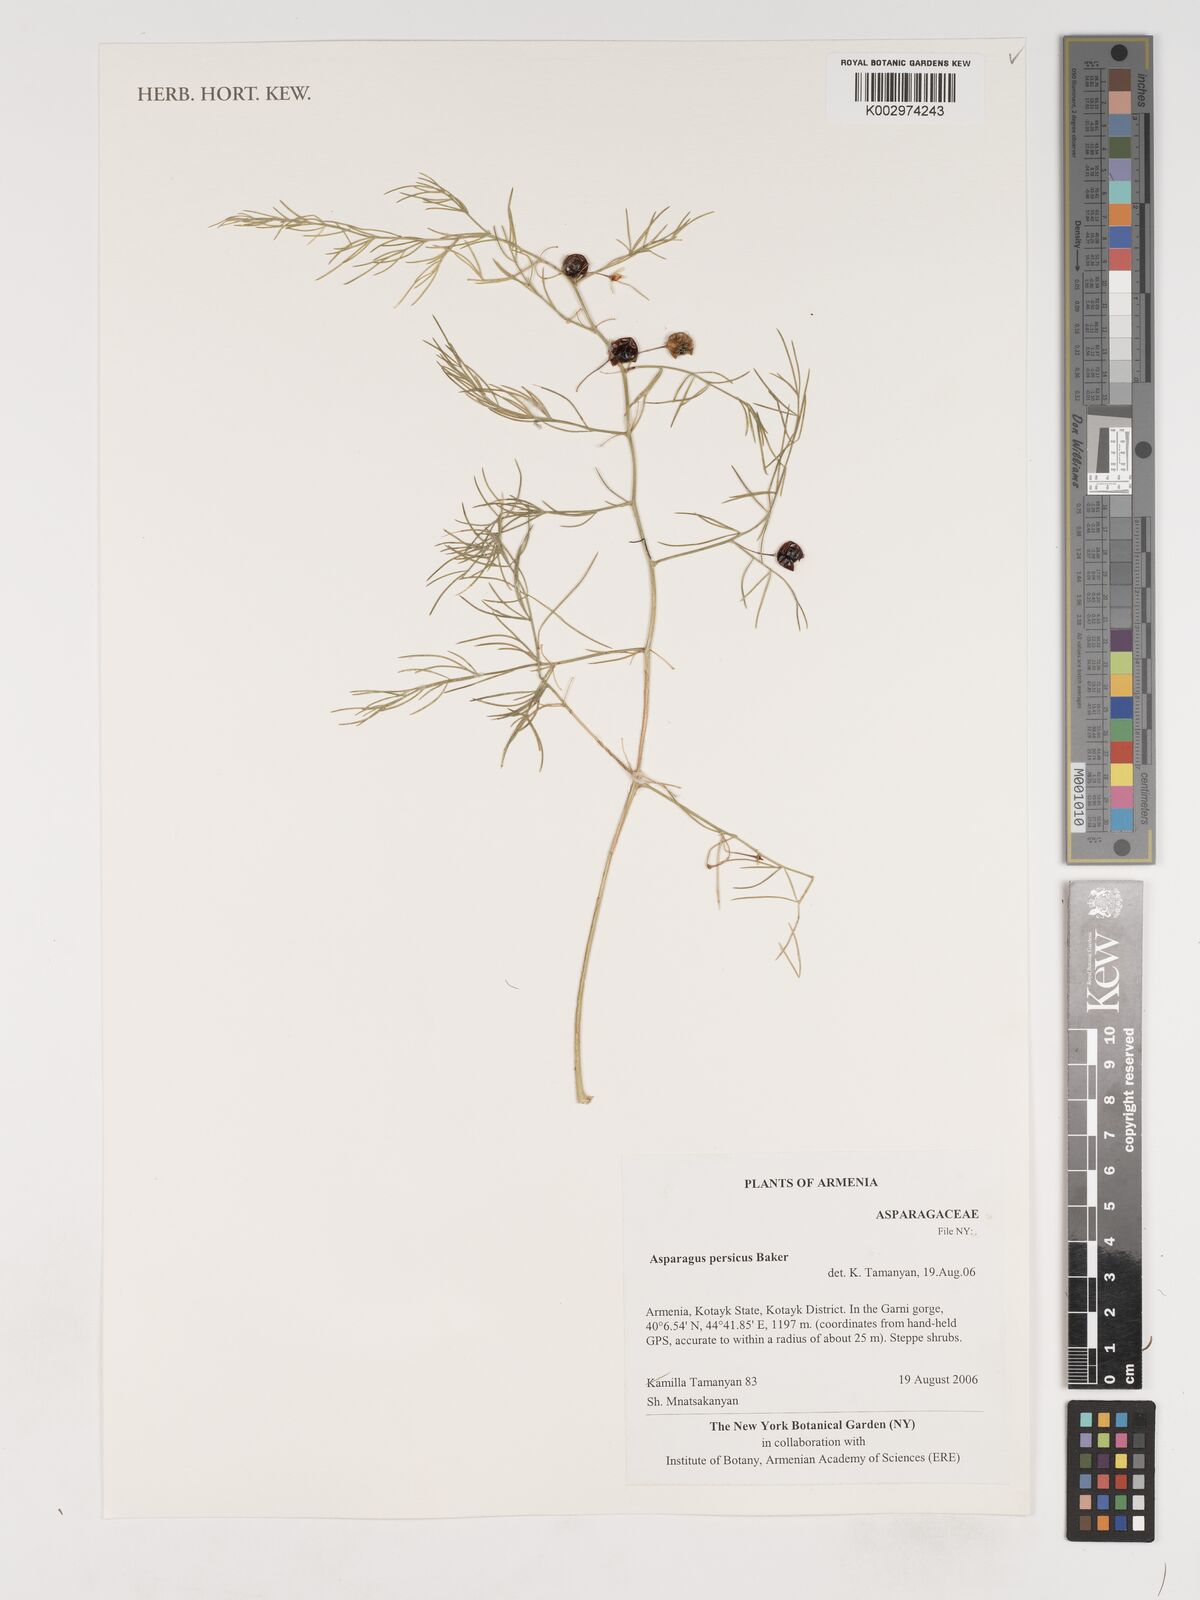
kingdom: Plantae
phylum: Tracheophyta
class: Liliopsida
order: Asparagales
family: Asparagaceae
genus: Asparagus
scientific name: Asparagus persicus
